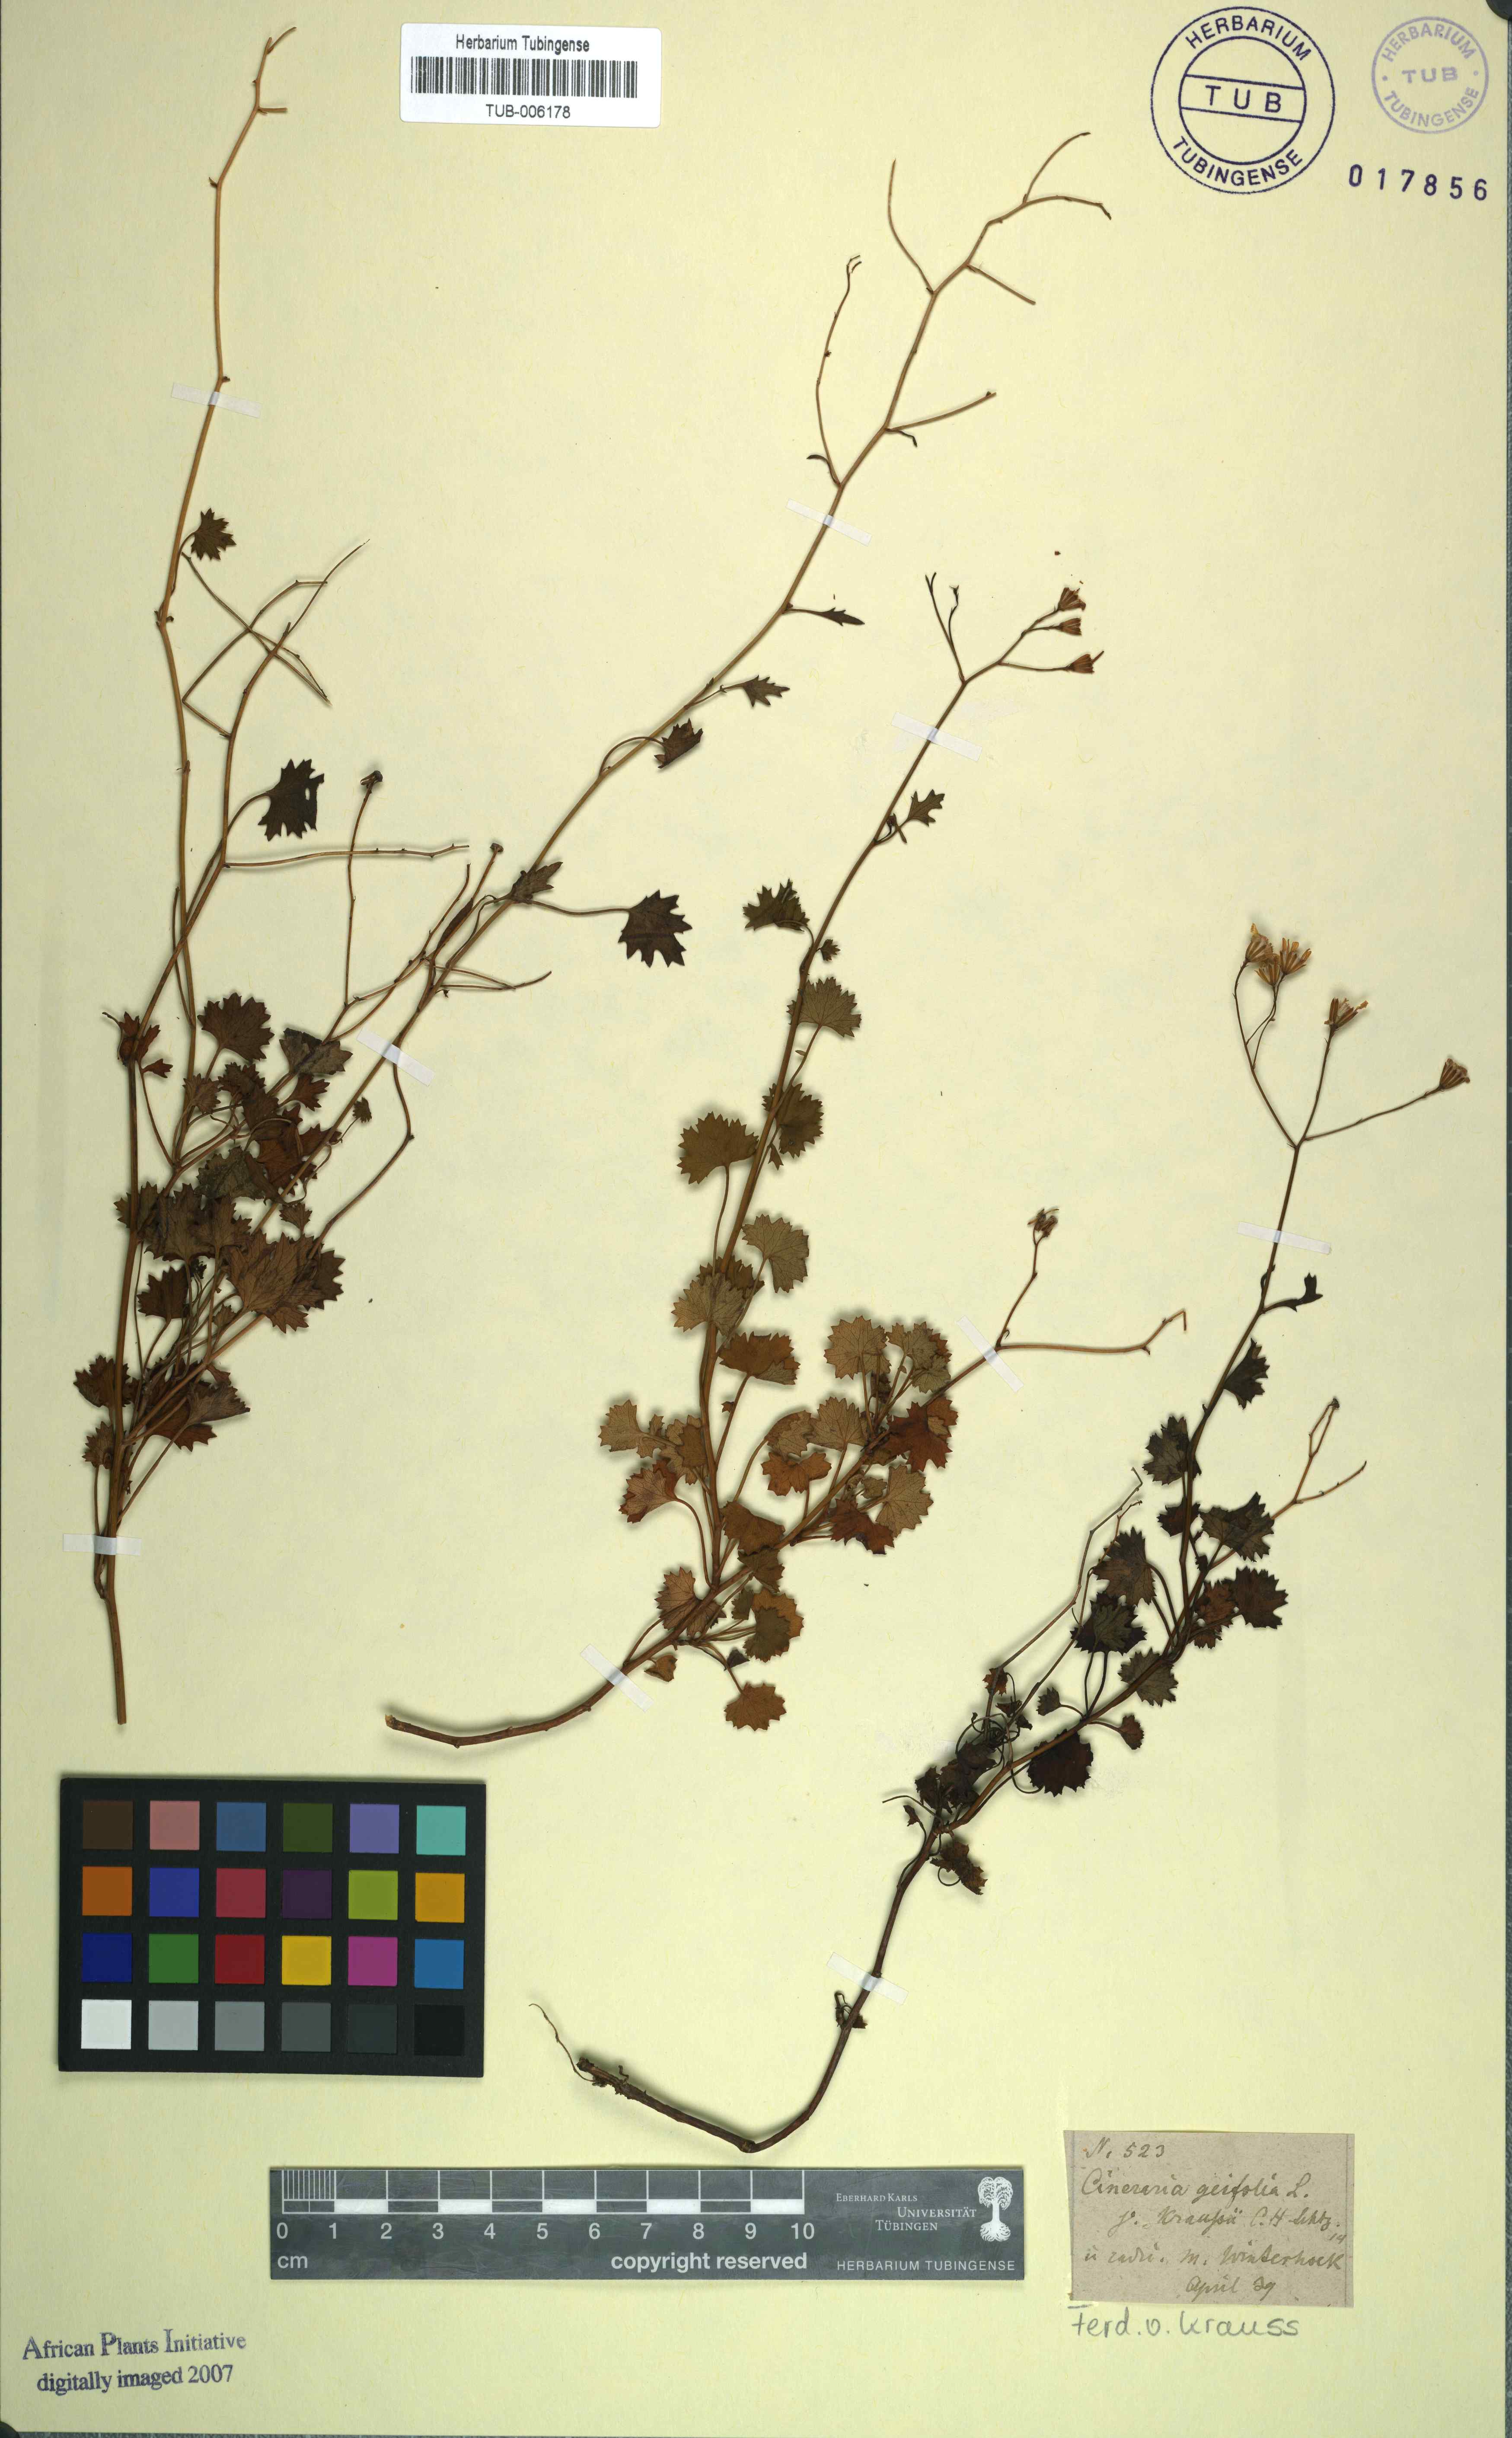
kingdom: Plantae
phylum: Tracheophyta
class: Magnoliopsida
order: Asterales
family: Asteraceae
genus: Cineraria
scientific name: Cineraria geifolia
